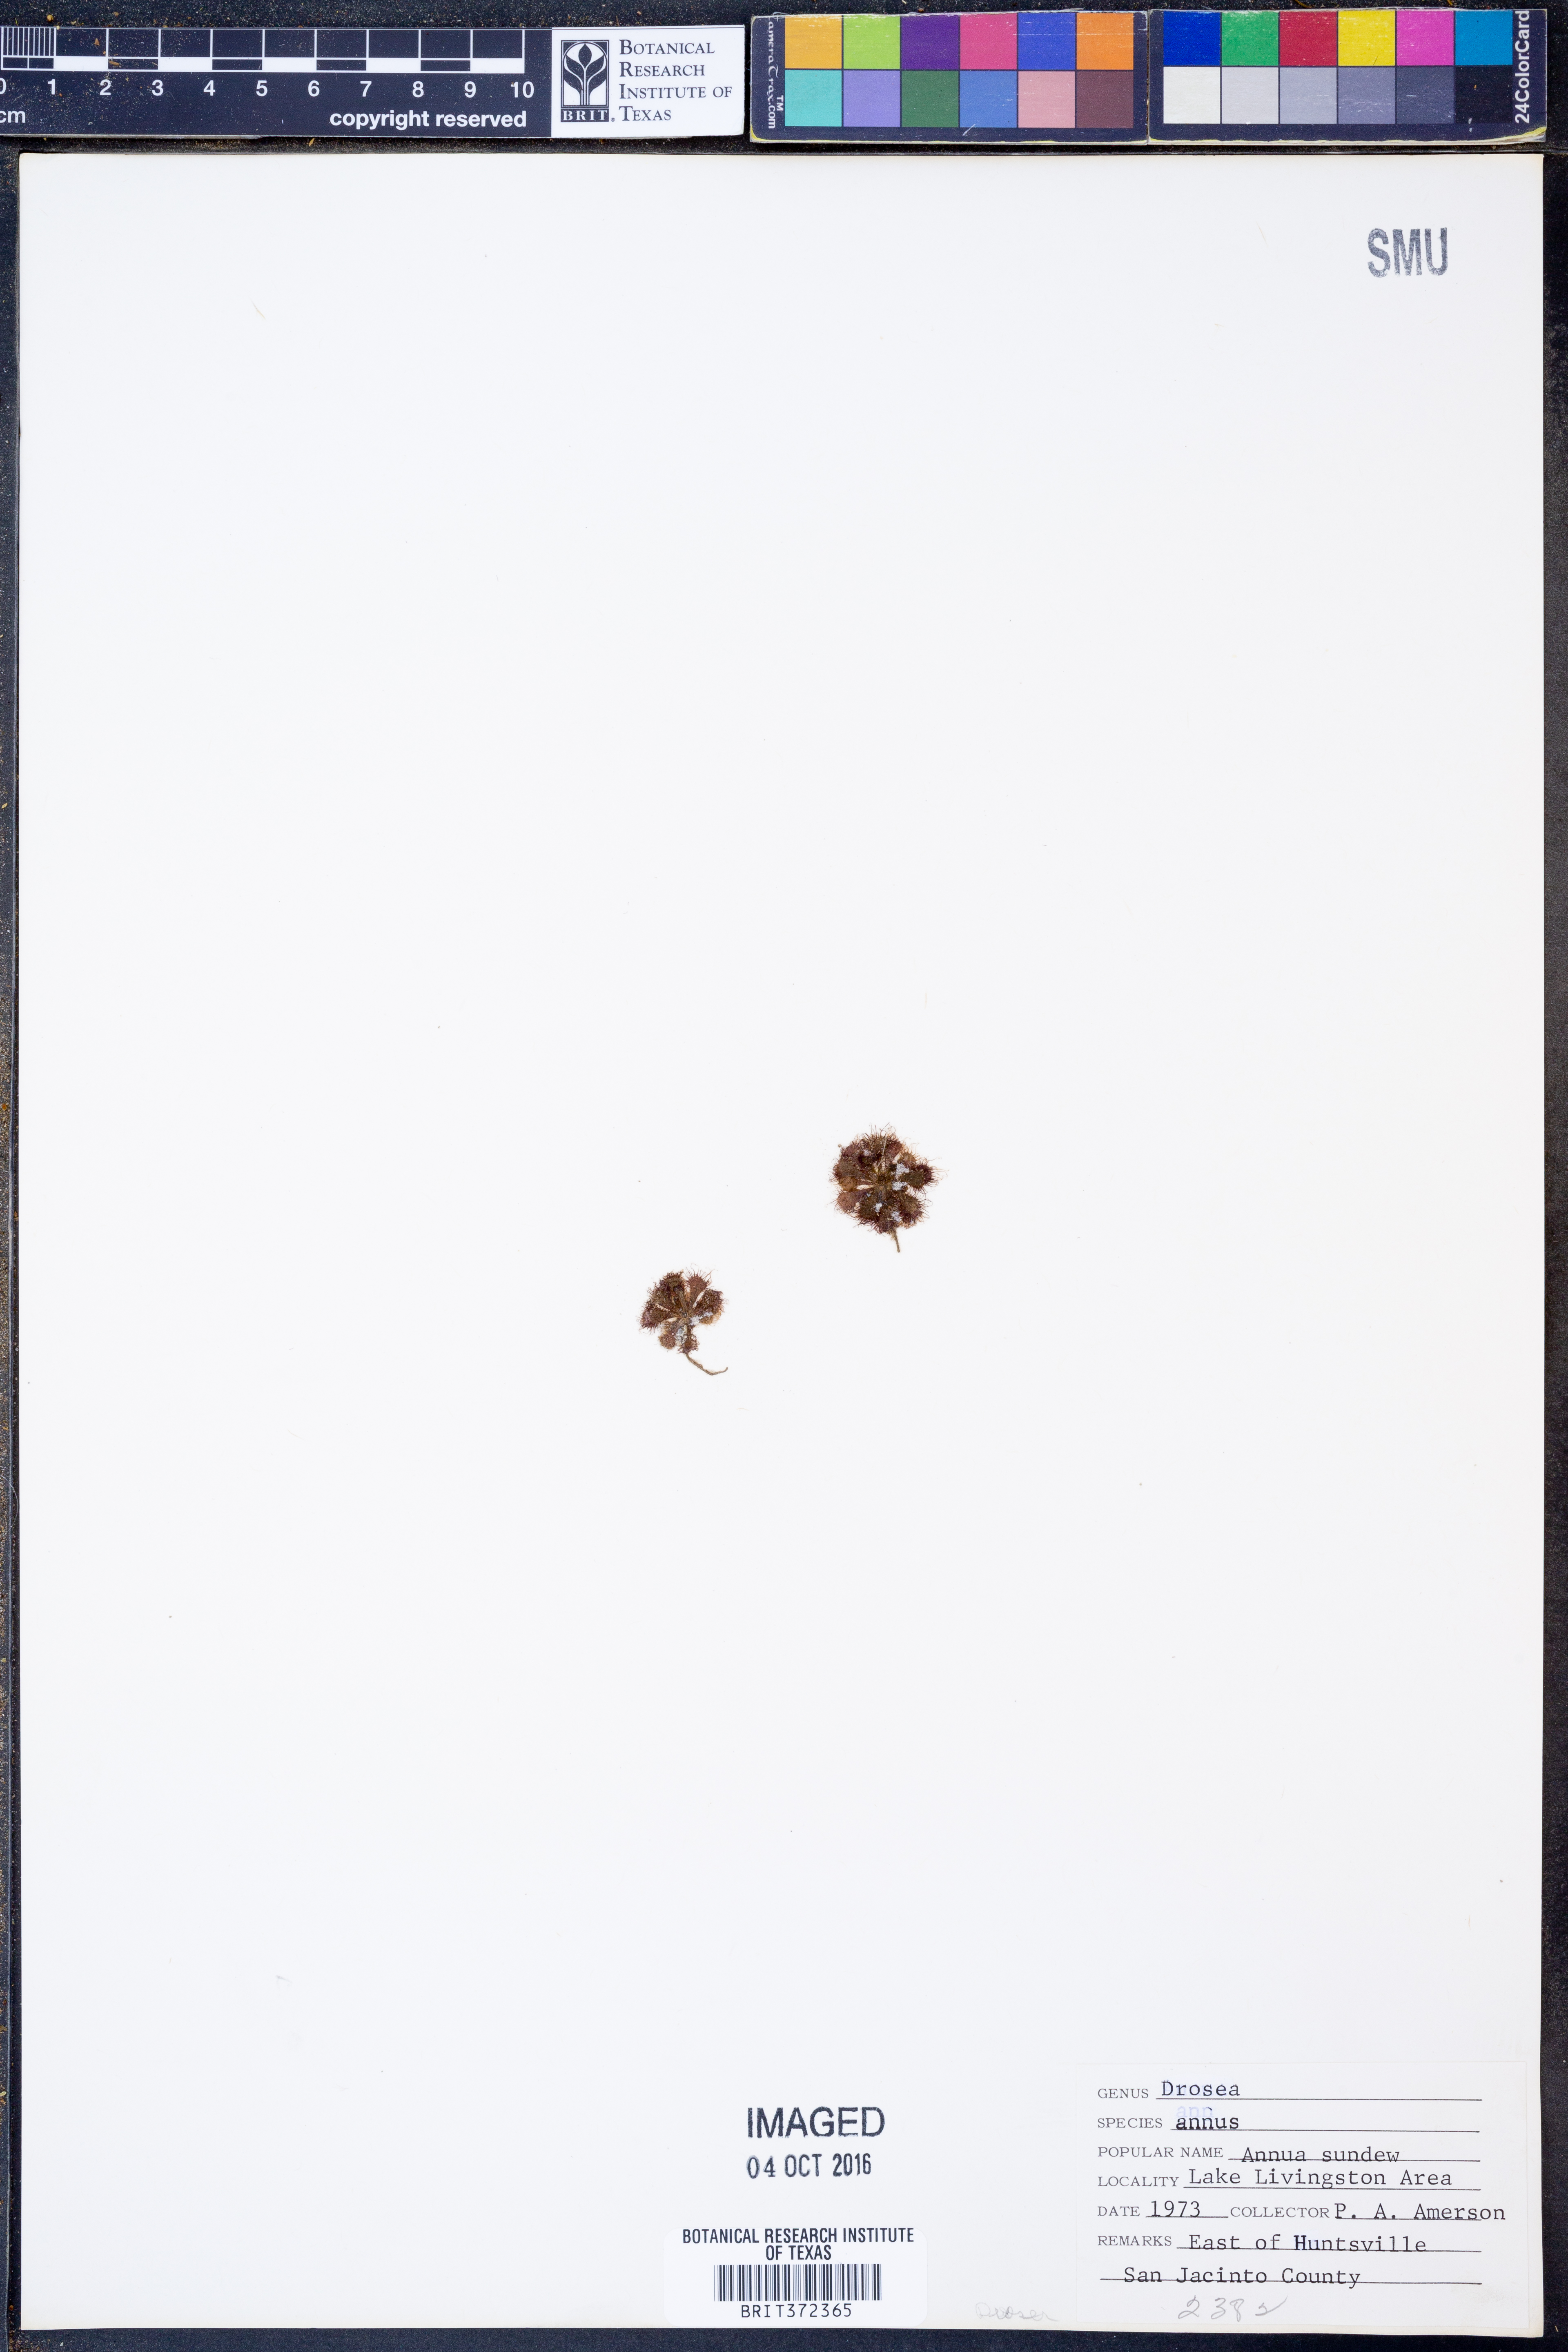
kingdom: Plantae
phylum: Tracheophyta
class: Magnoliopsida
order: Caryophyllales
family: Droseraceae
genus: Drosera
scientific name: Drosera brevifolia
